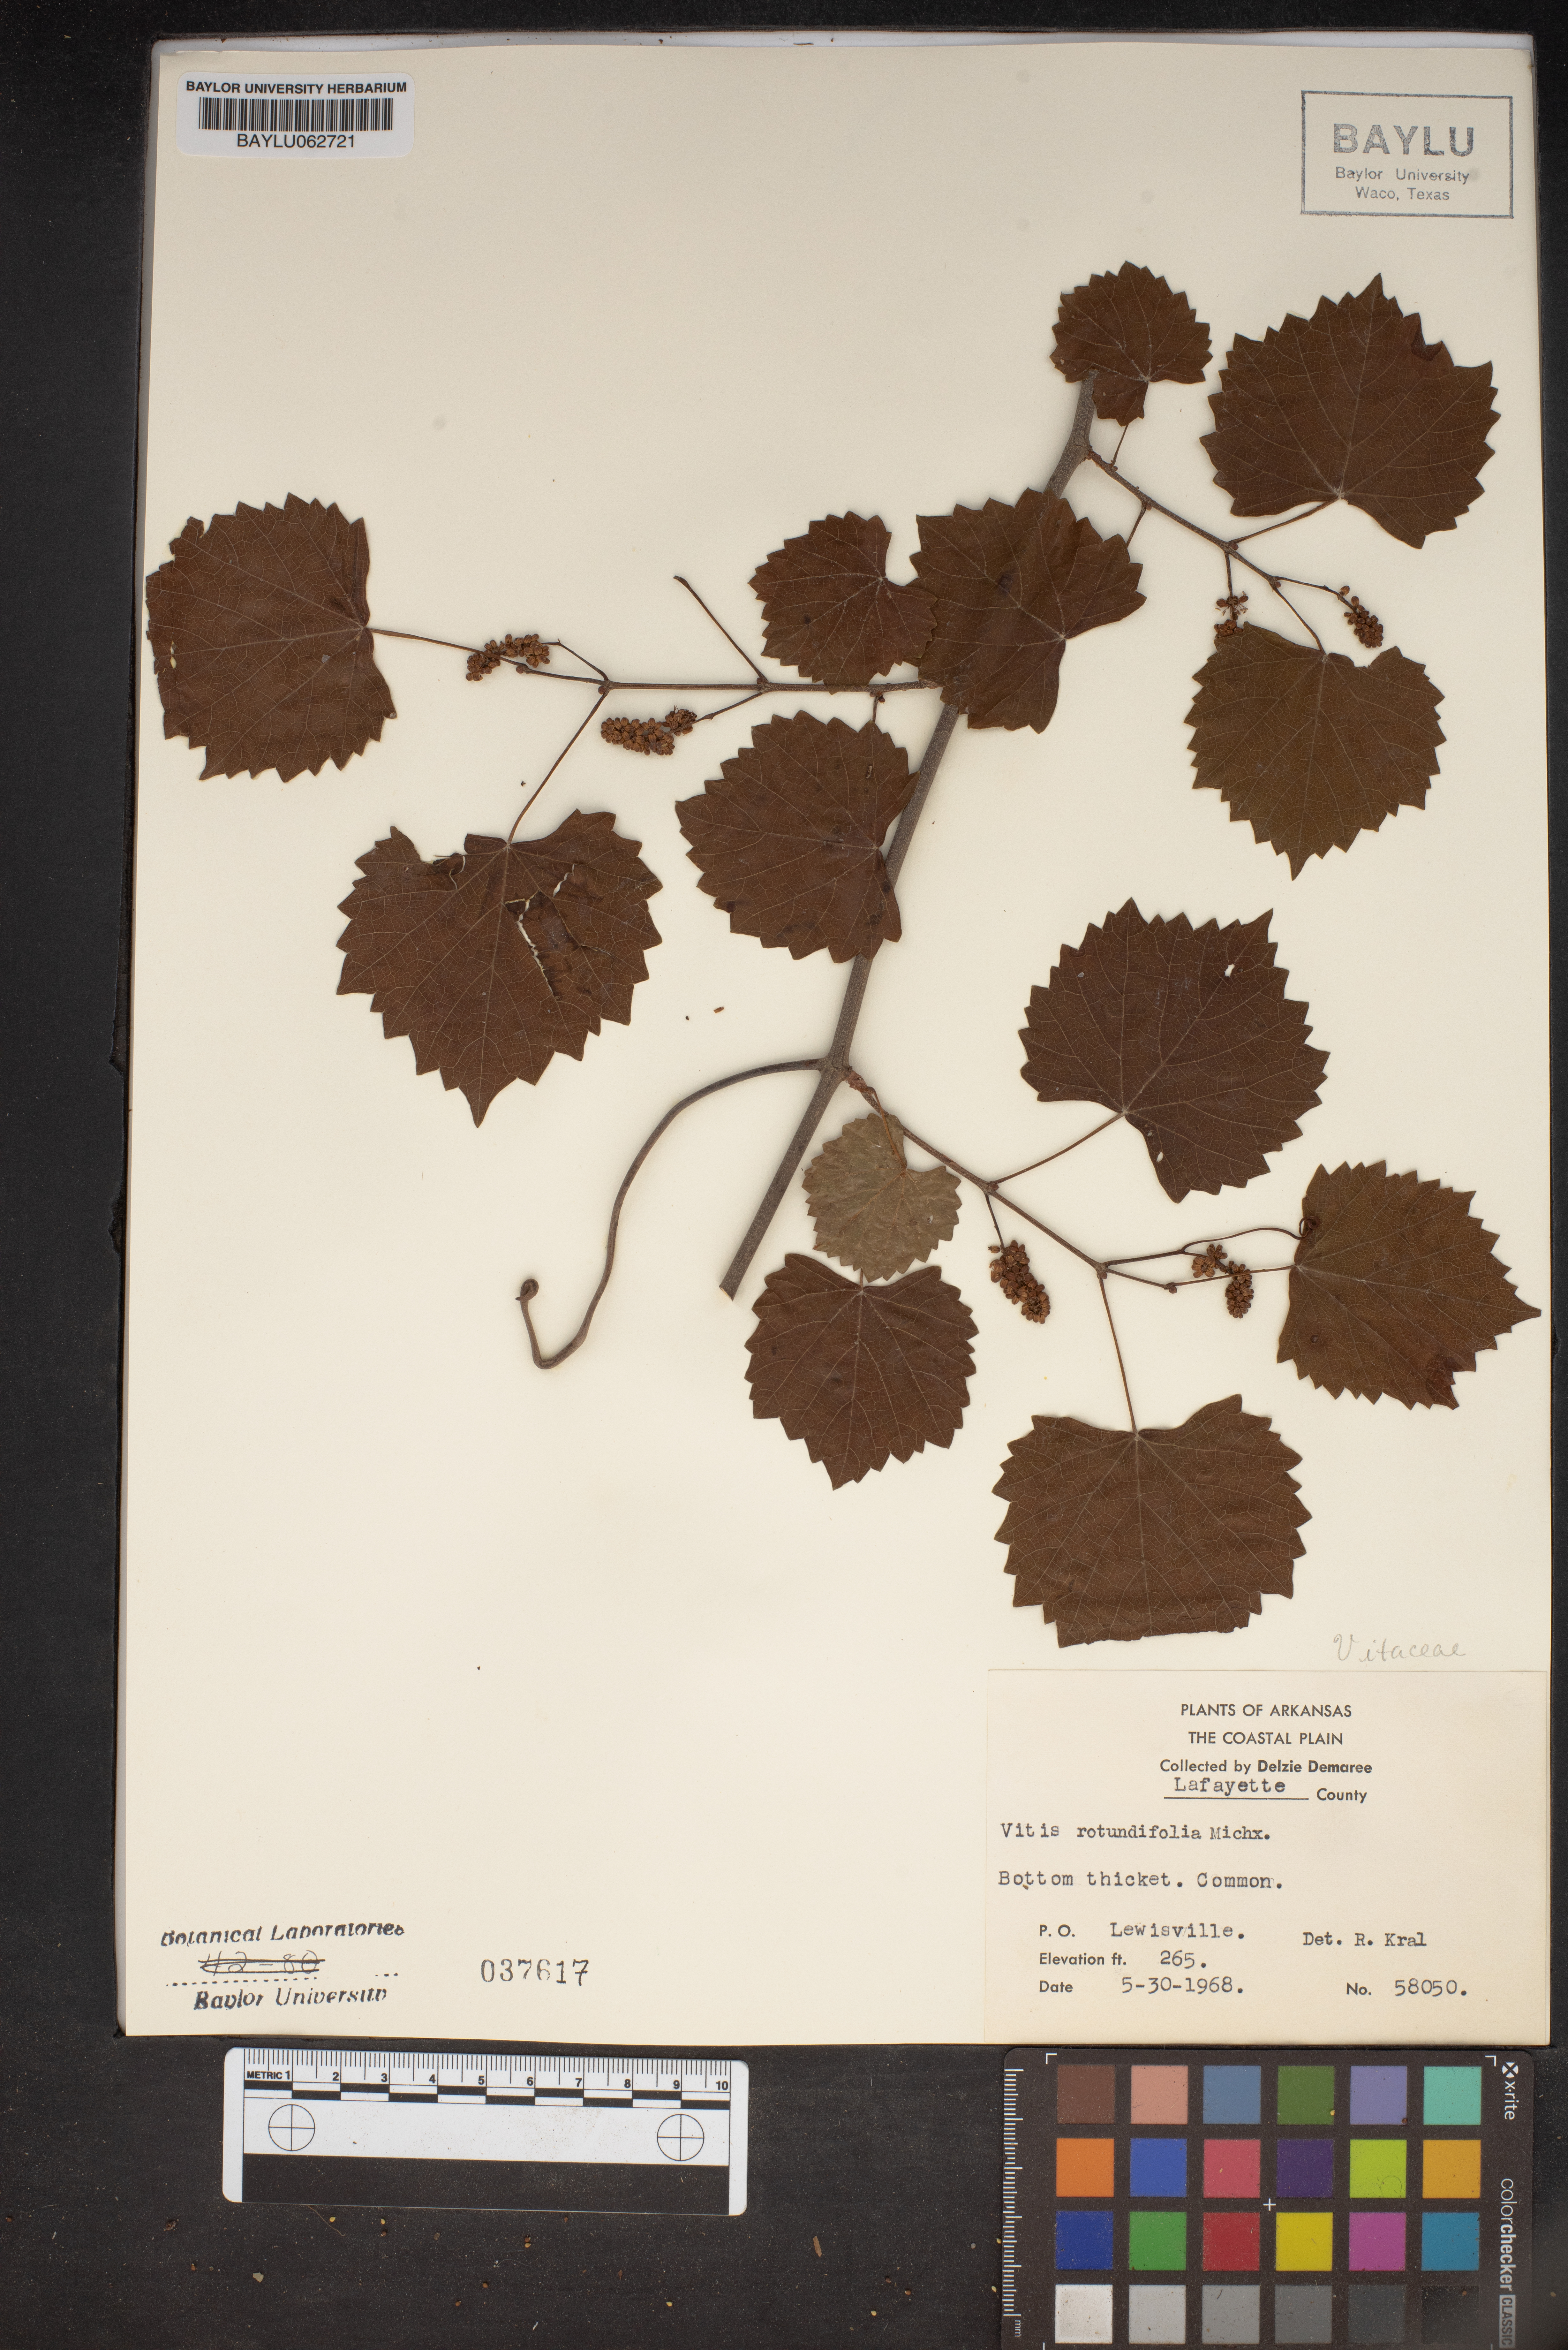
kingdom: Plantae
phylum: Tracheophyta
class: Magnoliopsida
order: Vitales
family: Vitaceae
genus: Vitis
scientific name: Vitis rotundifolia
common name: Muscadine grape
